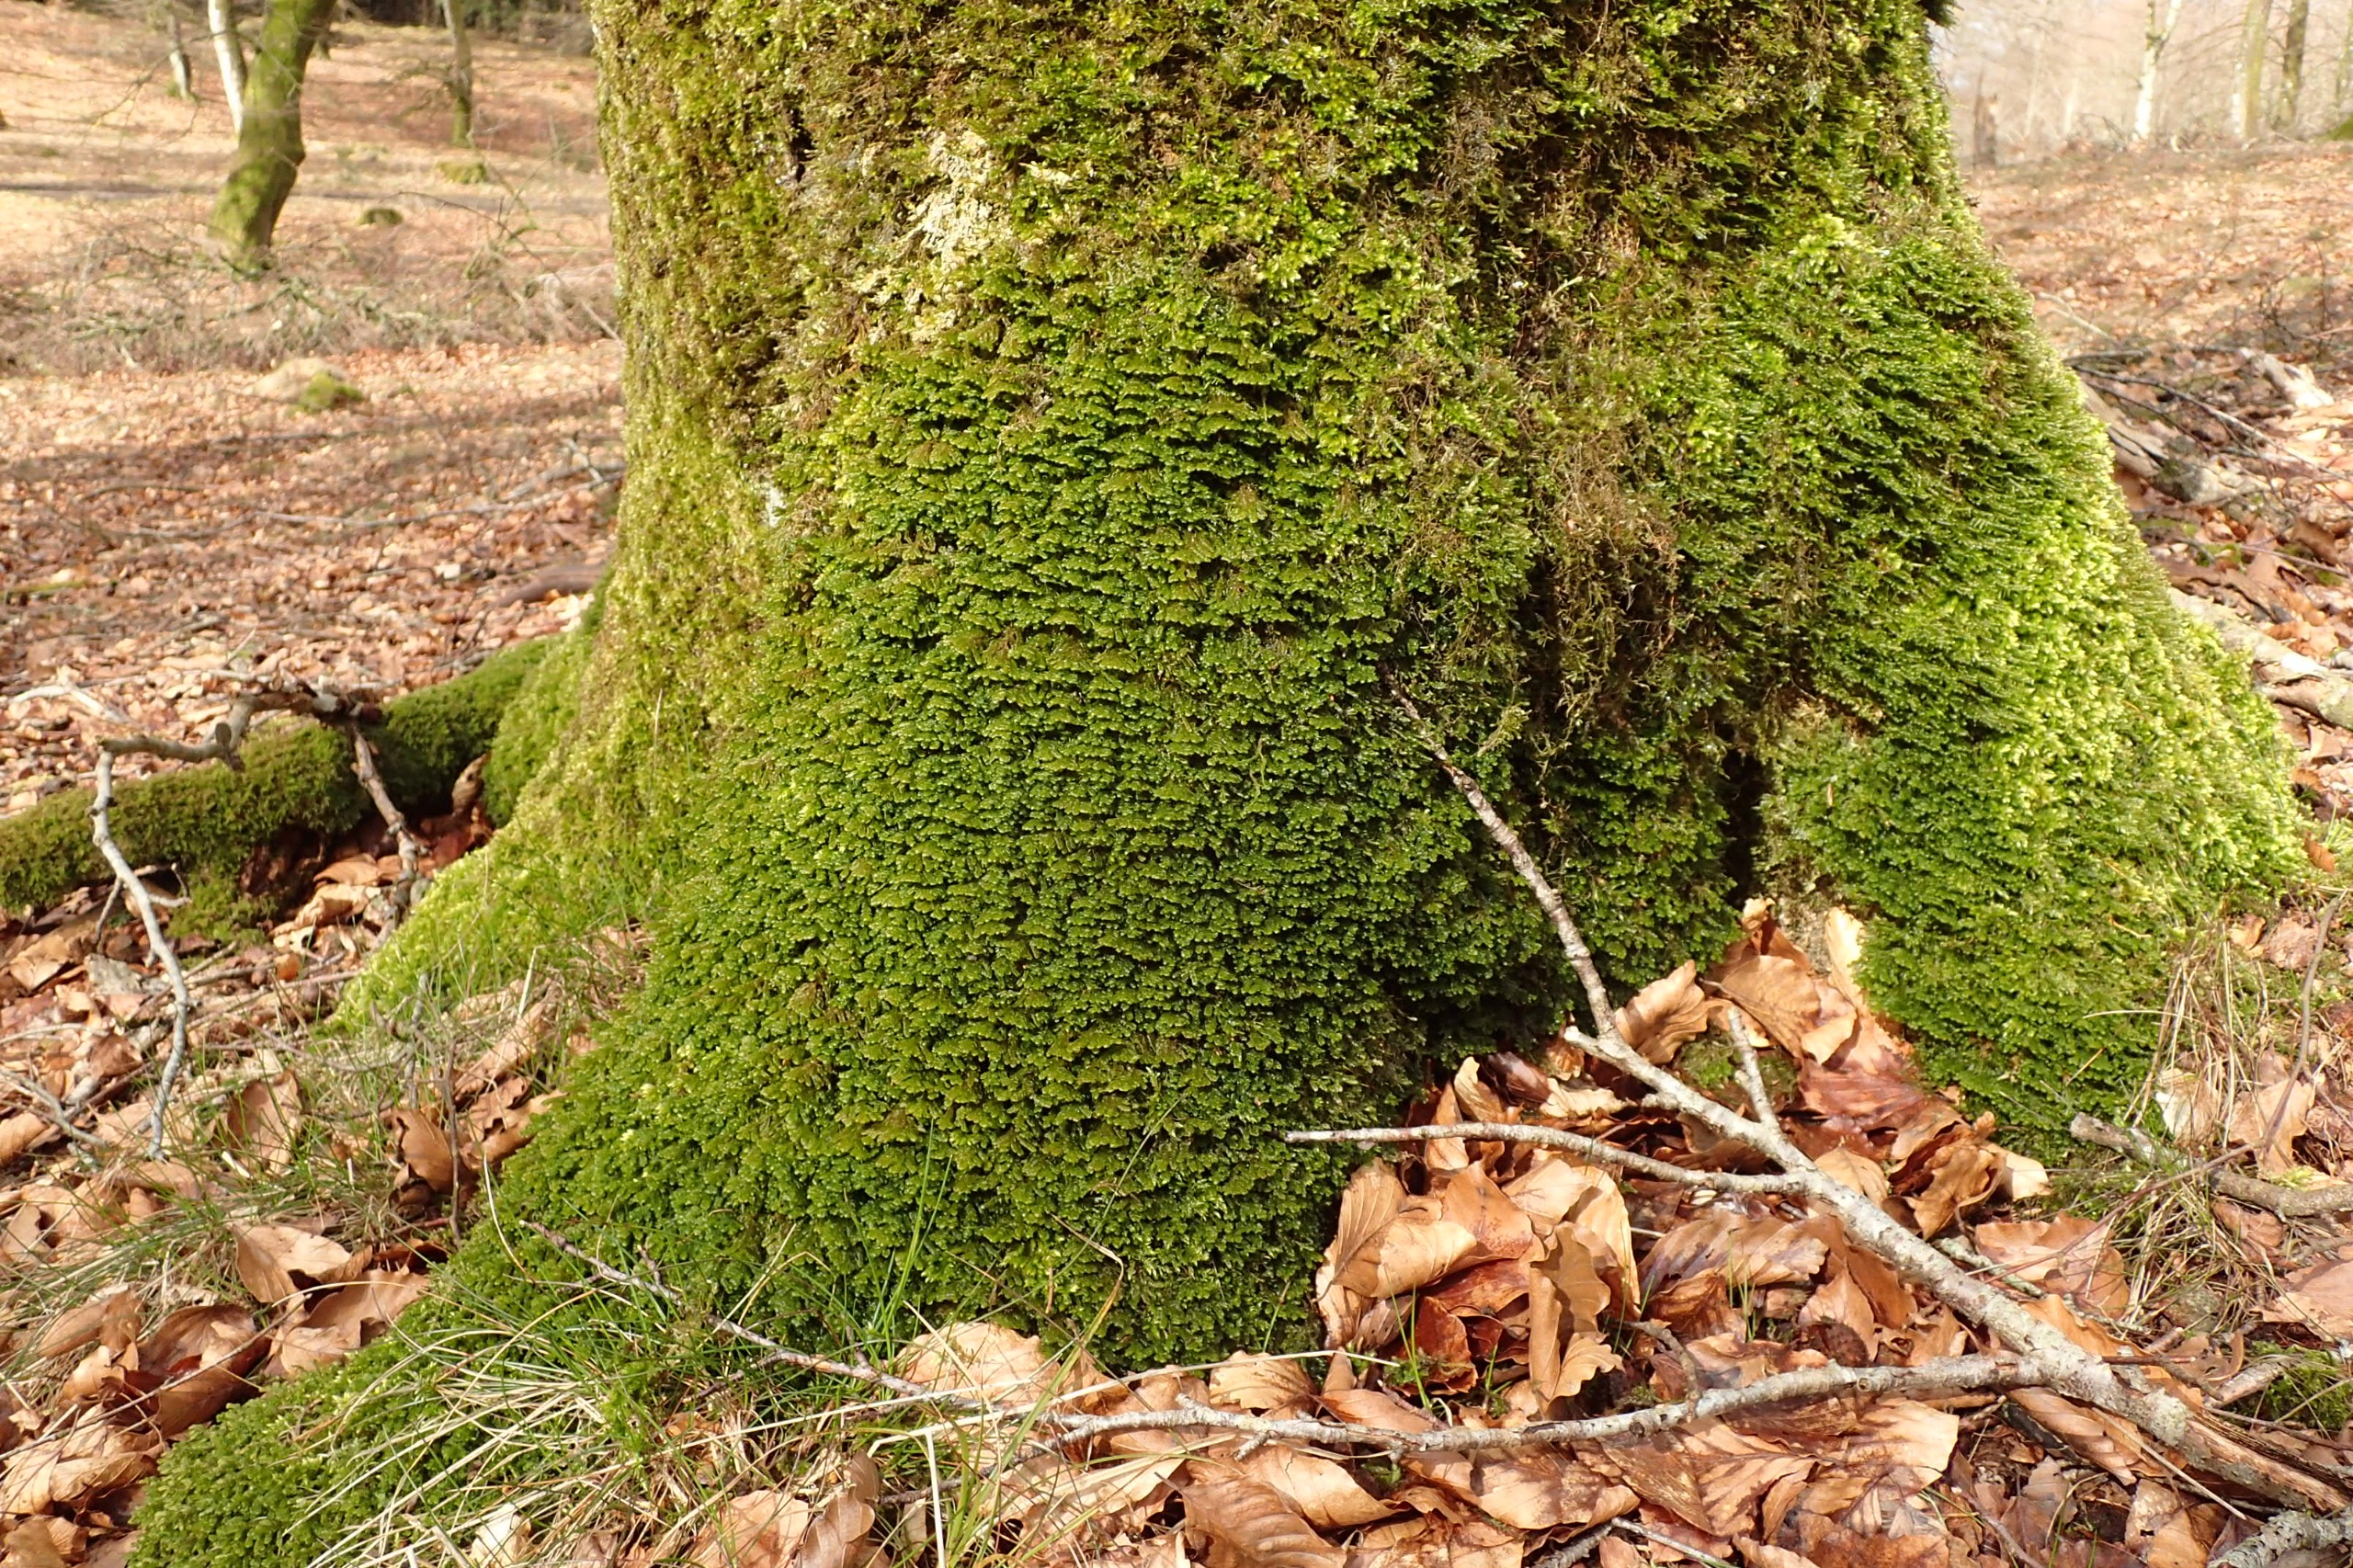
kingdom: Plantae
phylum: Marchantiophyta
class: Jungermanniopsida
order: Porellales
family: Porellaceae
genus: Porella
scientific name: Porella platyphylla
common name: Almindelig skælryg
